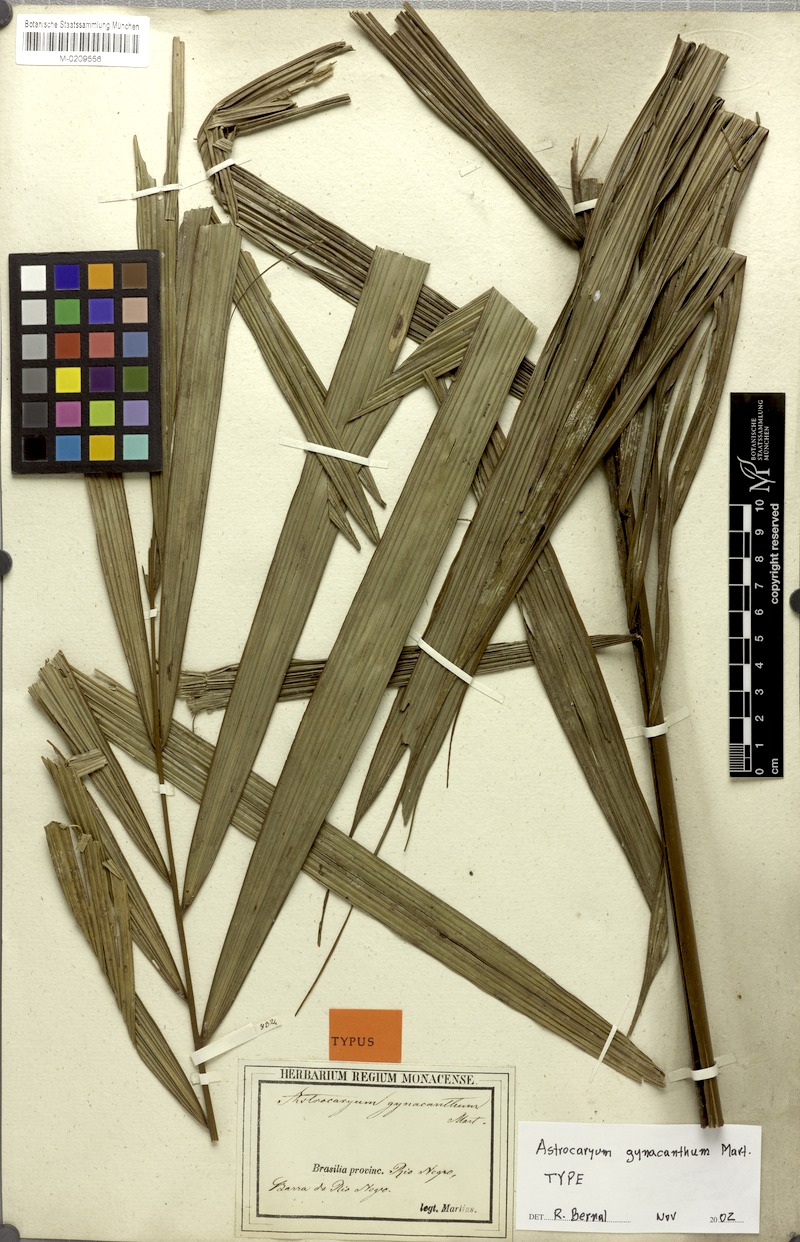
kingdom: Plantae
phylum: Tracheophyta
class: Liliopsida
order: Arecales
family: Arecaceae
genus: Astrocaryum
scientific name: Astrocaryum aculeatum
